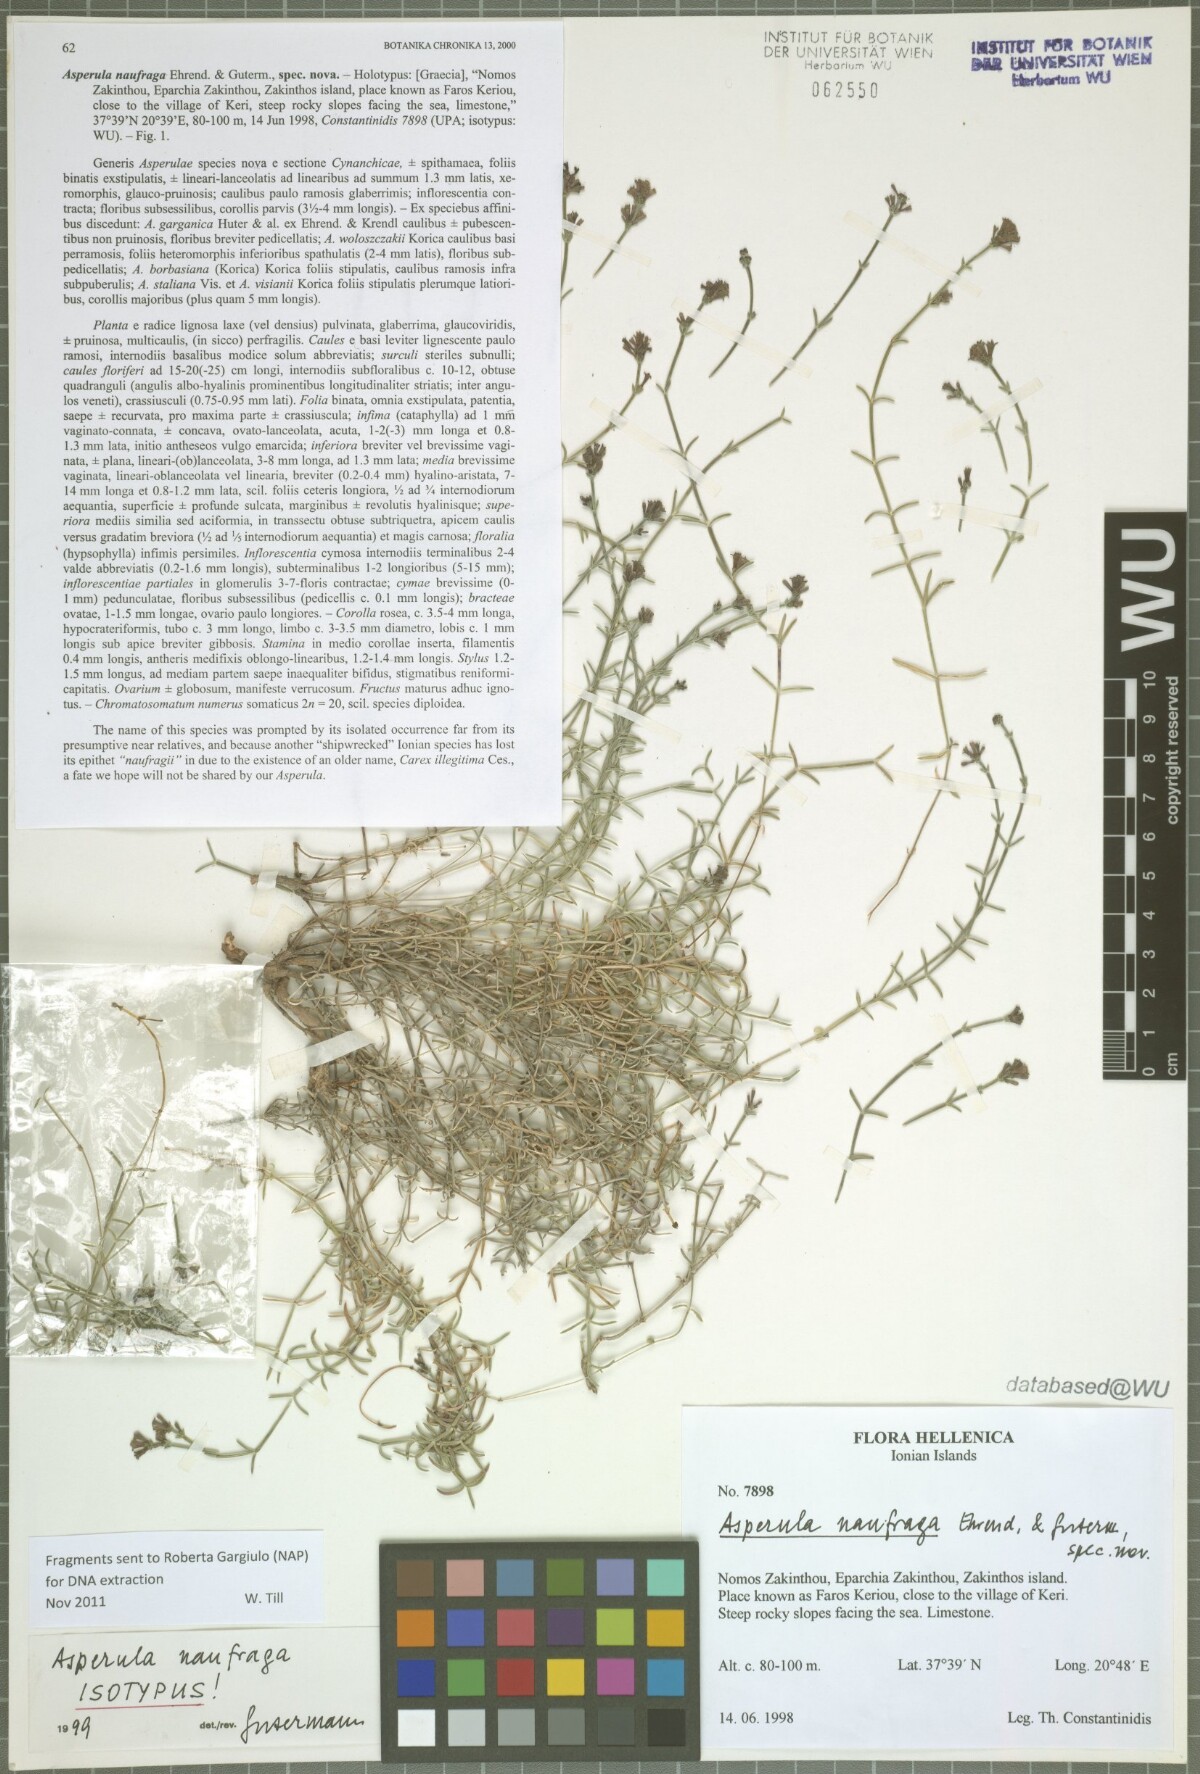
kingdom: Plantae
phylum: Tracheophyta
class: Magnoliopsida
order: Gentianales
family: Rubiaceae
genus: Cynanchica
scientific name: Cynanchica naufraga
